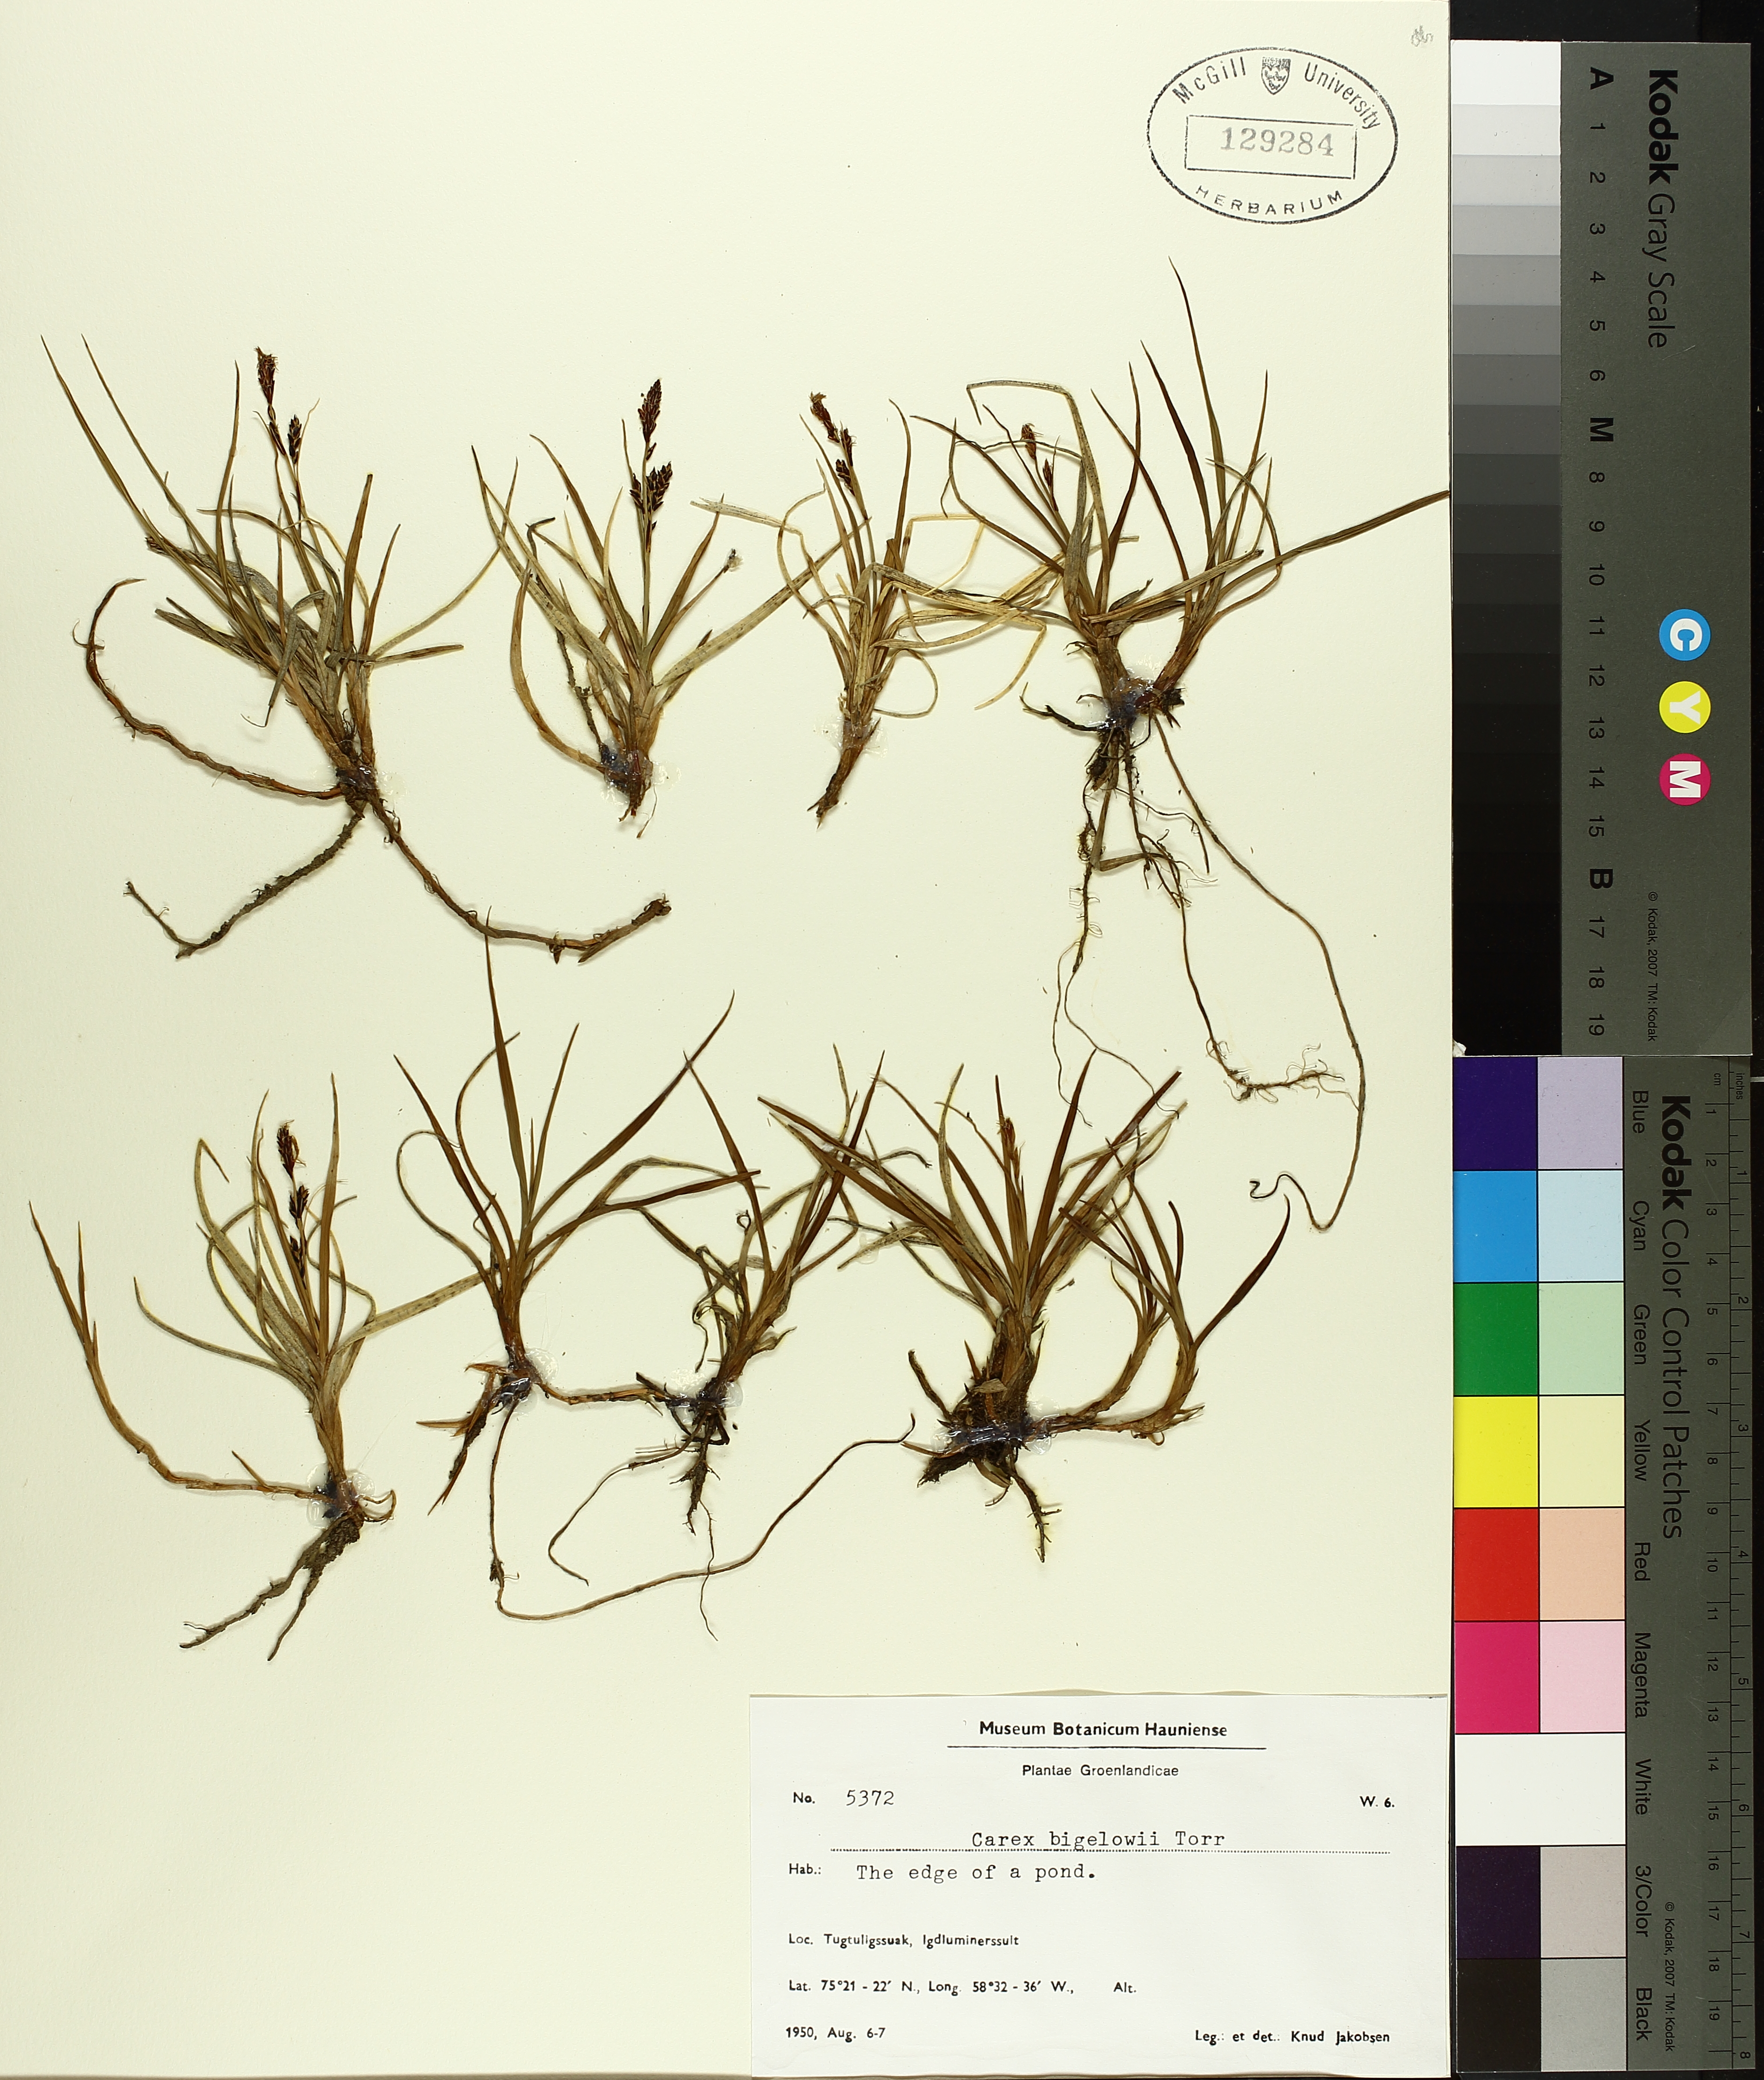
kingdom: Plantae
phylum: Tracheophyta
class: Liliopsida
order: Poales
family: Cyperaceae
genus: Carex
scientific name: Carex bigelowii
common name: Stiff sedge
